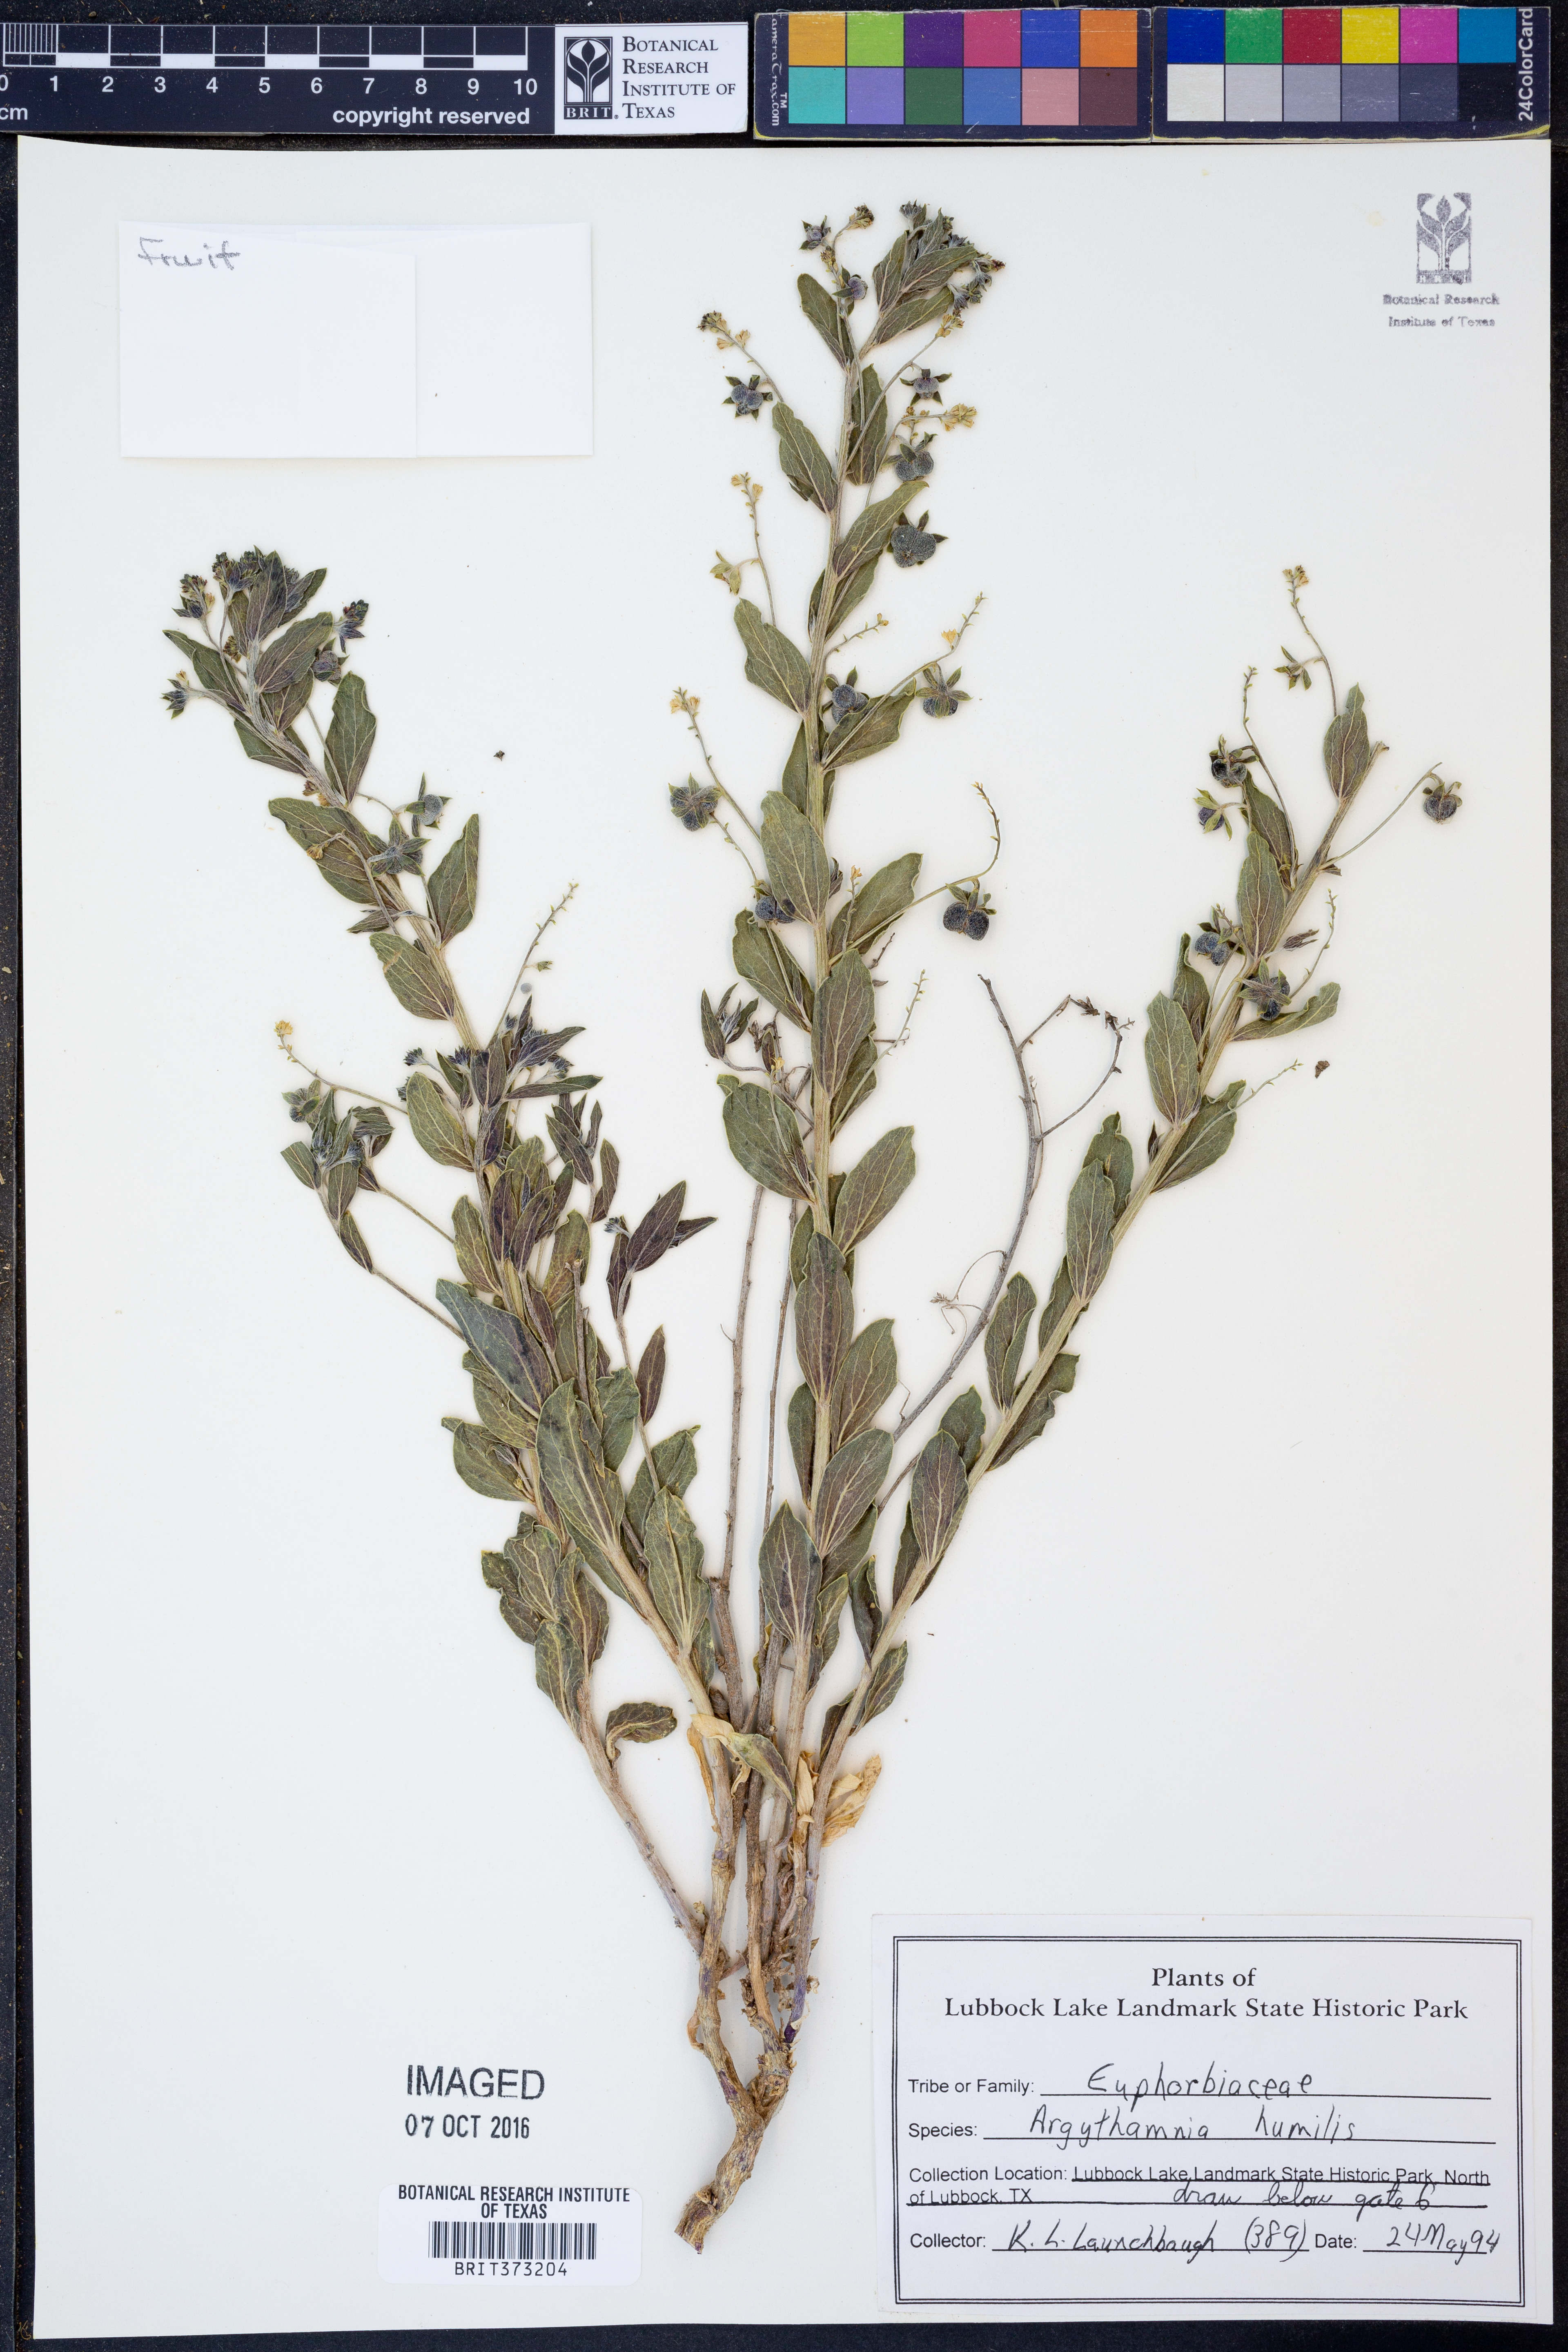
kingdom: Plantae
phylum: Tracheophyta
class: Magnoliopsida
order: Malpighiales
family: Euphorbiaceae
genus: Ditaxis
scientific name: Ditaxis humilis
